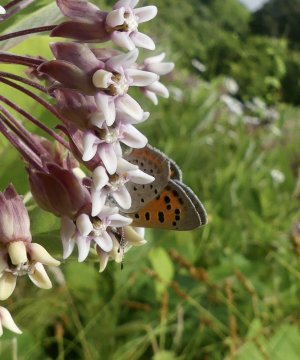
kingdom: Animalia
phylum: Arthropoda
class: Insecta
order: Lepidoptera
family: Lycaenidae
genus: Lycaena
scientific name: Lycaena phlaeas
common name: American Copper
